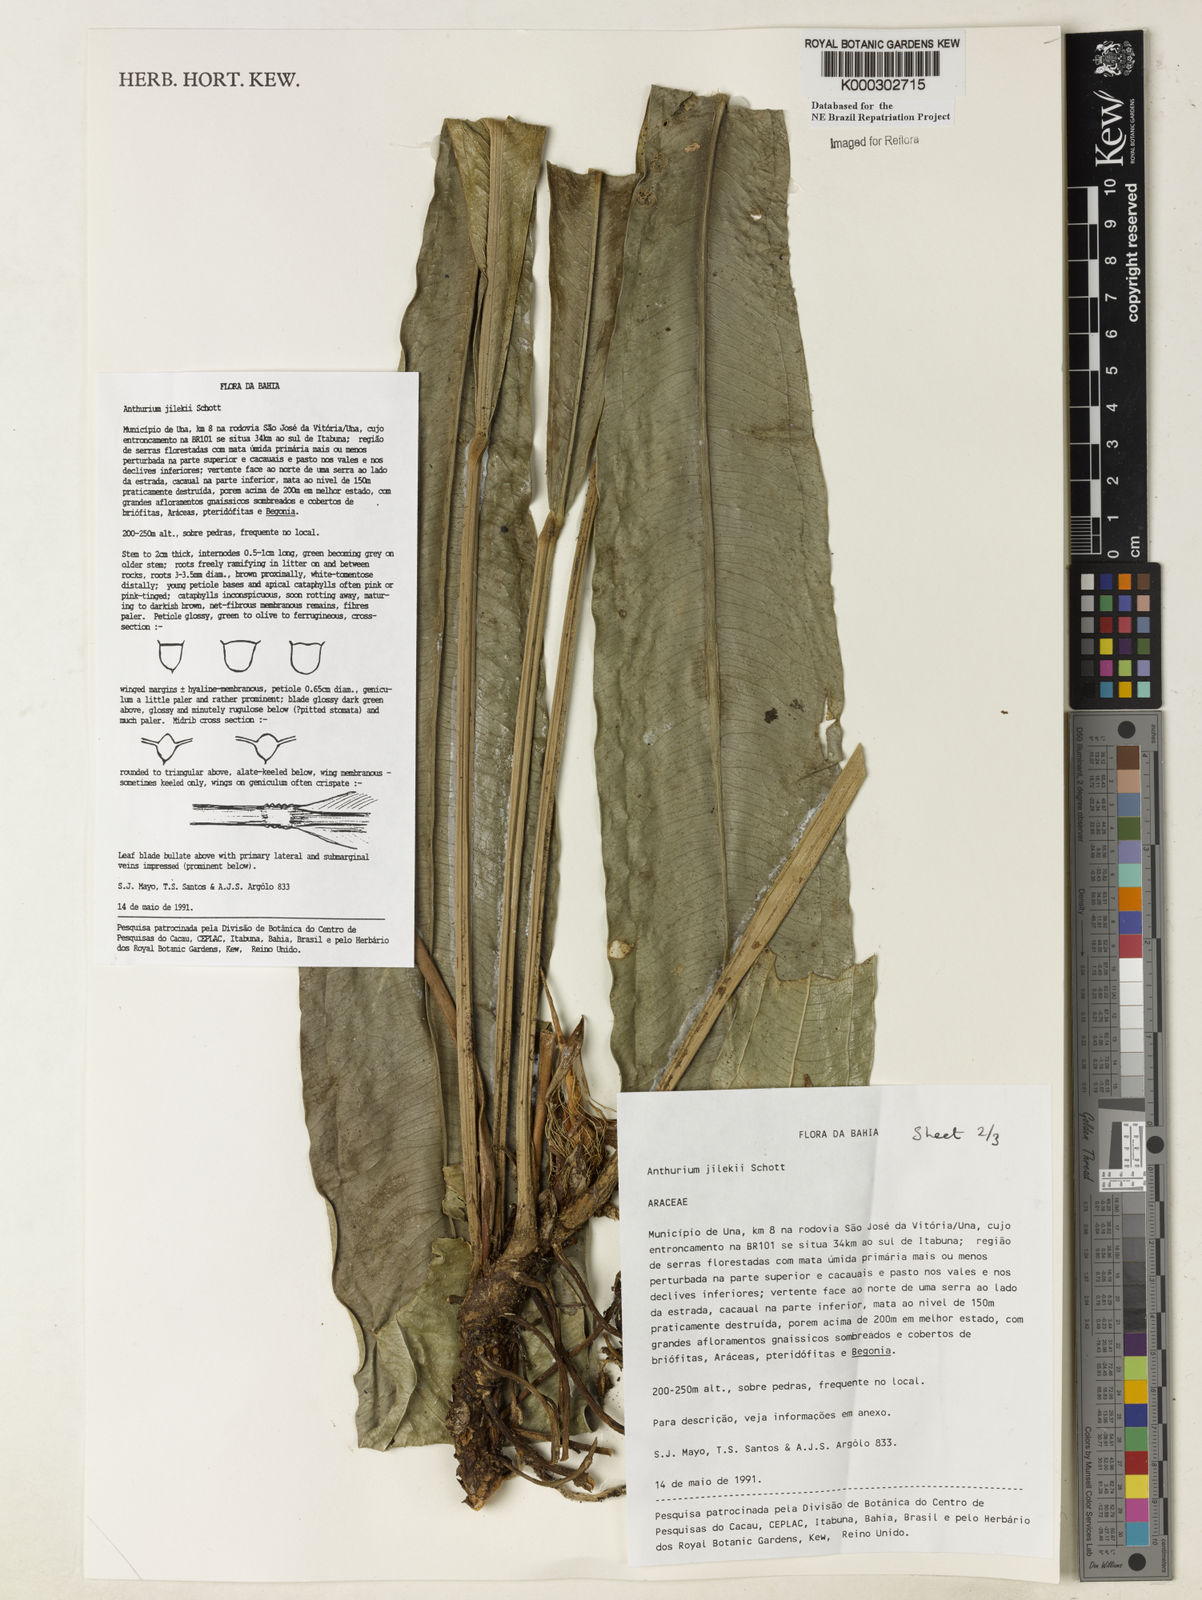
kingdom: Plantae
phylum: Tracheophyta
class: Liliopsida
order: Alismatales
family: Araceae
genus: Anthurium
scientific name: Anthurium jilekii
